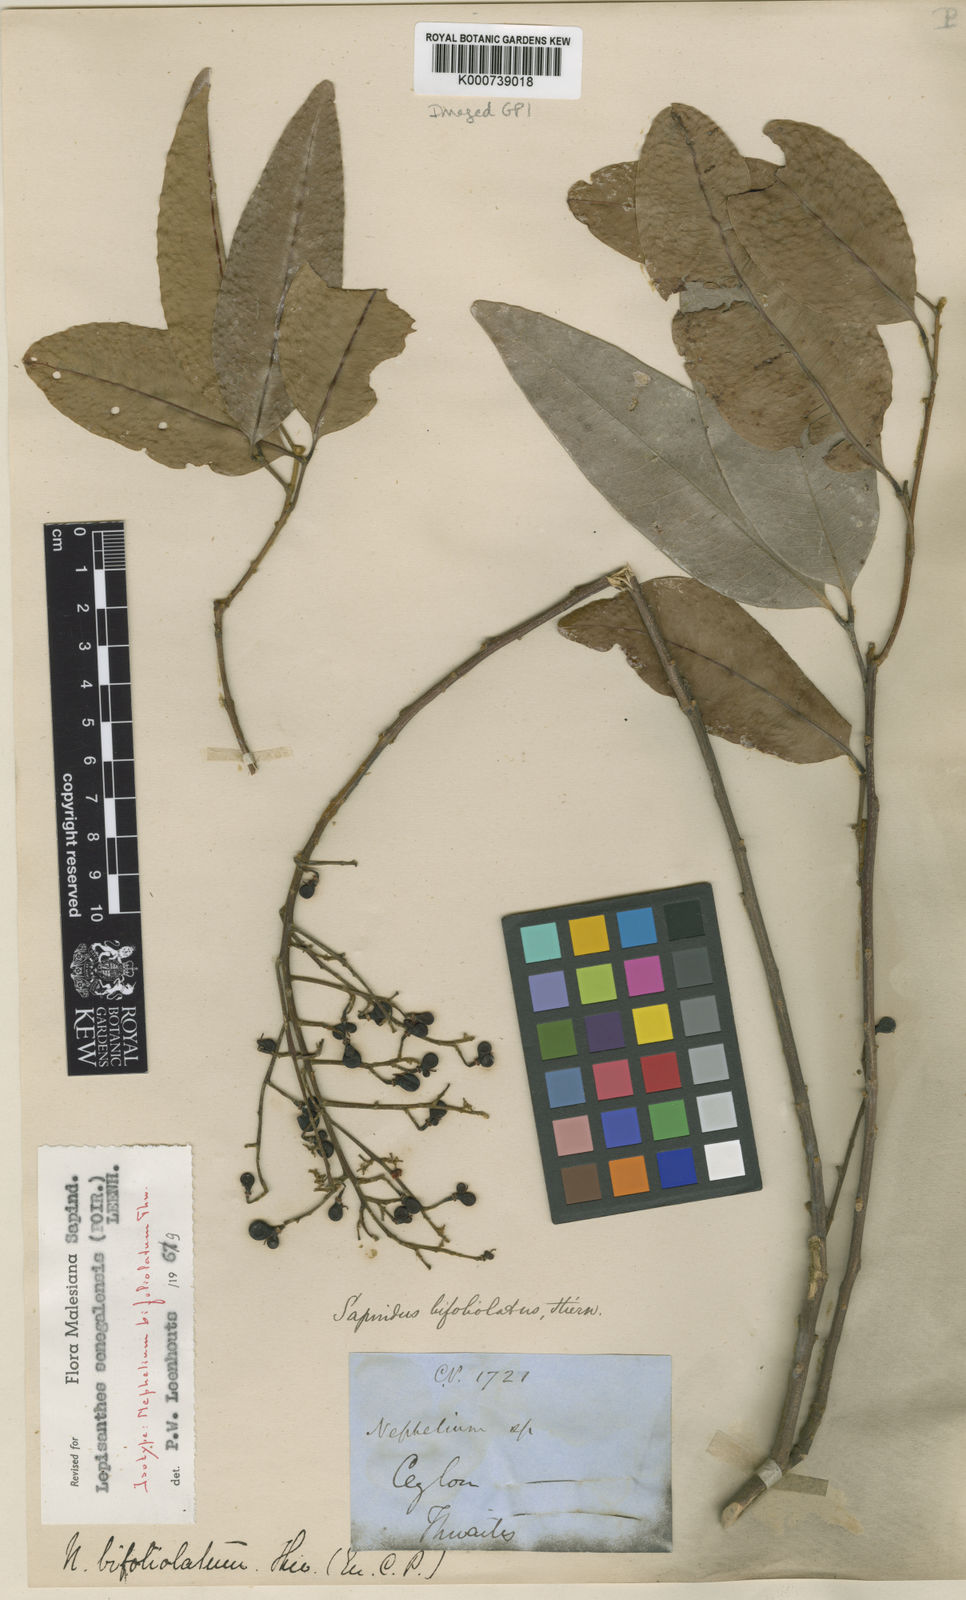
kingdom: Plantae
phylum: Tracheophyta
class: Magnoliopsida
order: Sapindales
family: Sapindaceae
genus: Lepisanthes
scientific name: Lepisanthes senegalensis
